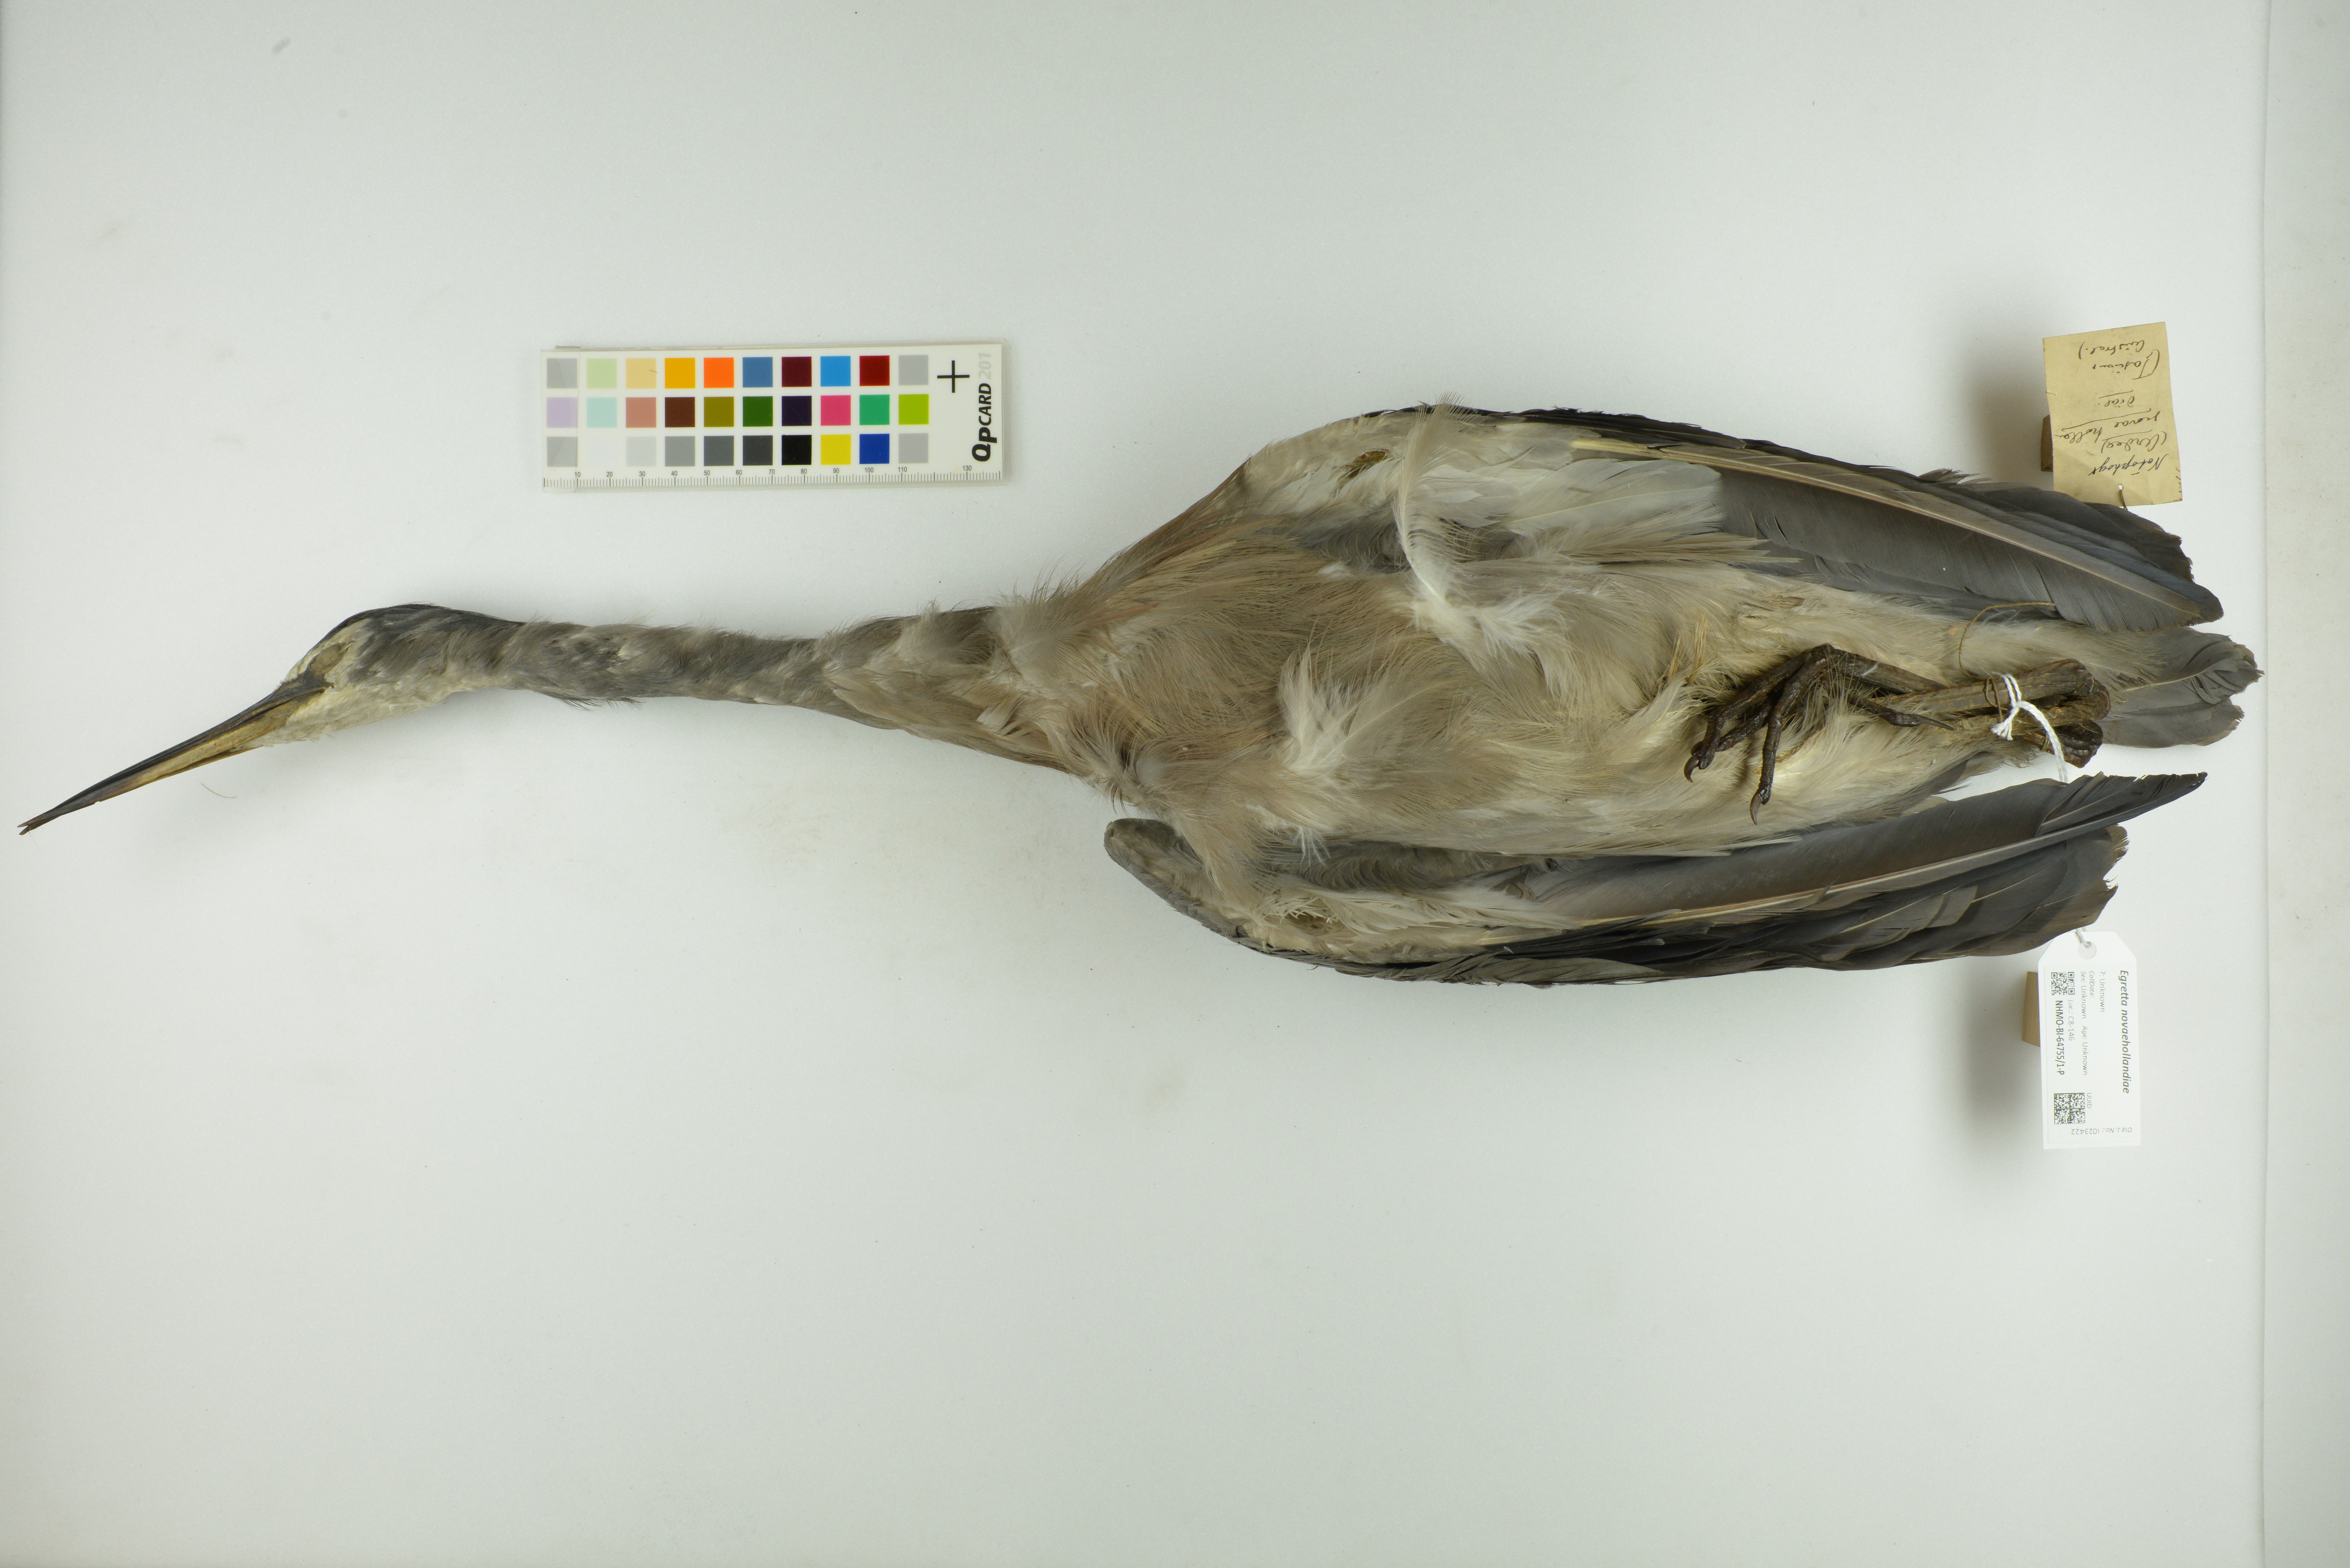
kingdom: Animalia
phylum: Chordata
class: Aves
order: Pelecaniformes
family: Ardeidae
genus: Egretta
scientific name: Egretta novaehollandiae
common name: White-faced heron
